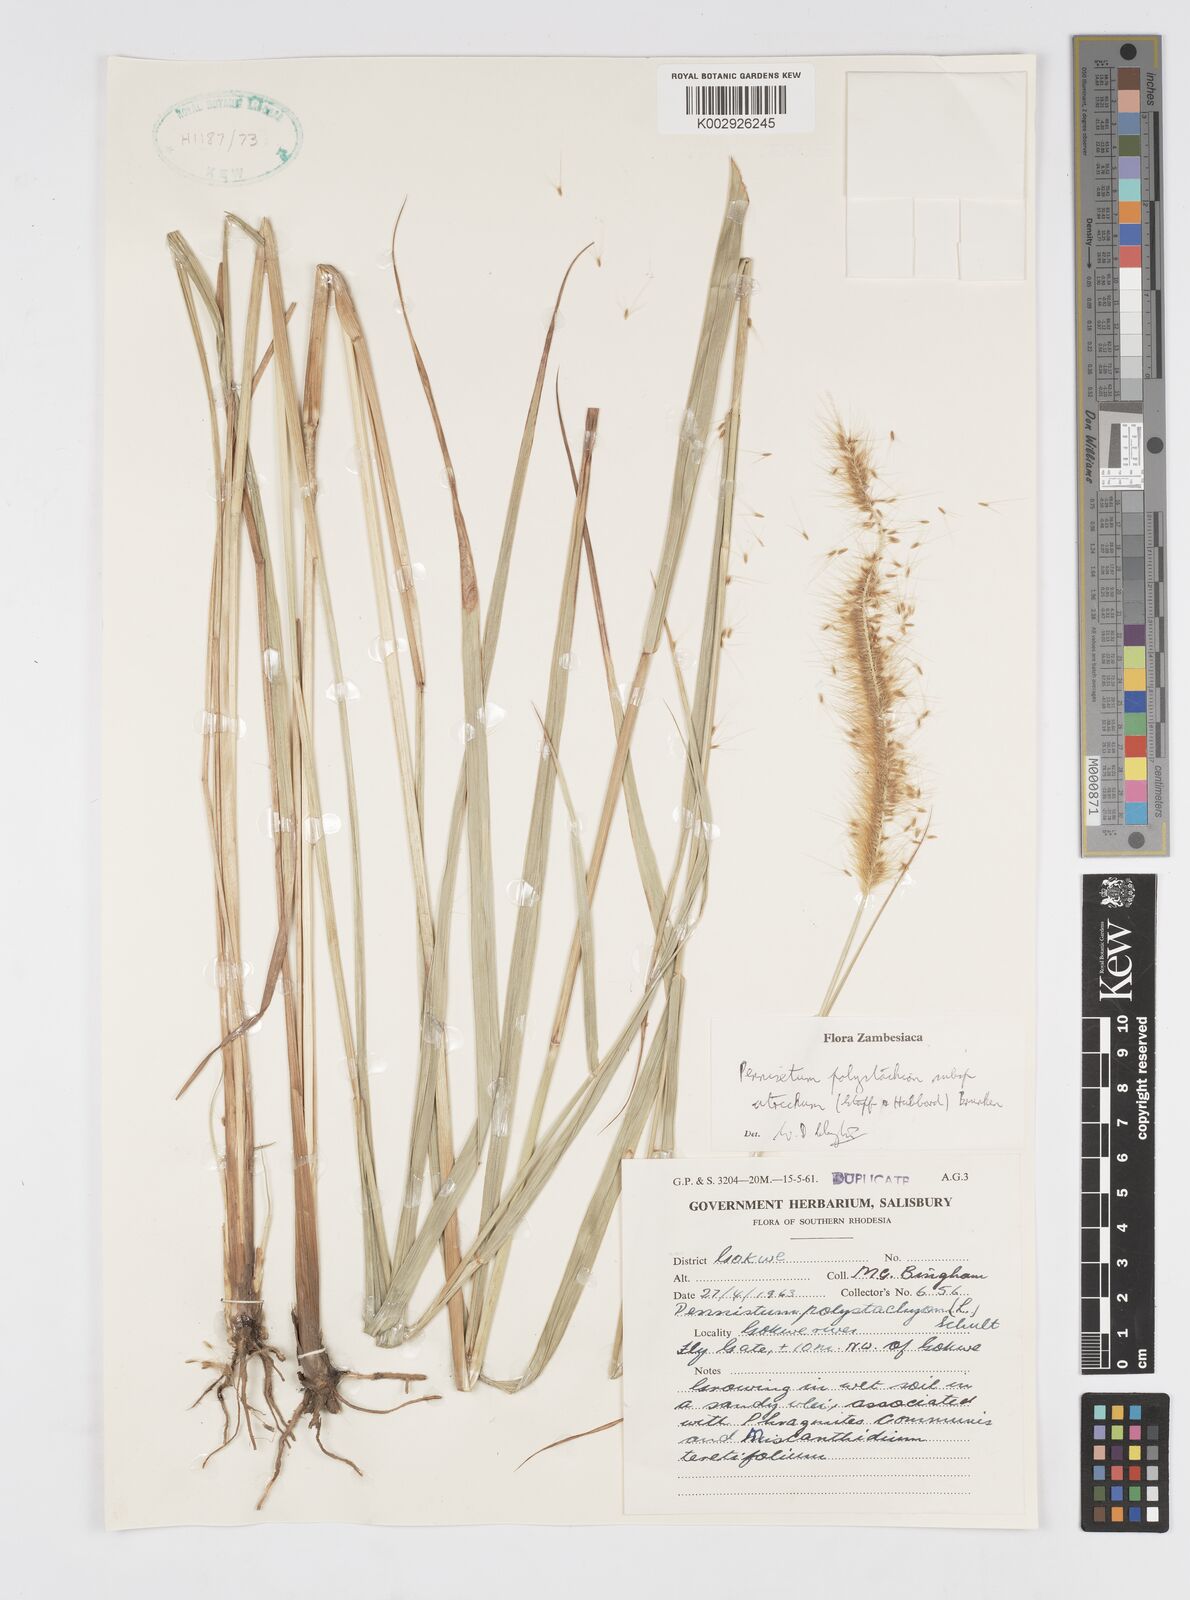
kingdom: Plantae
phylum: Tracheophyta
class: Liliopsida
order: Poales
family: Poaceae
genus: Cenchrus
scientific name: Cenchrus setosus
